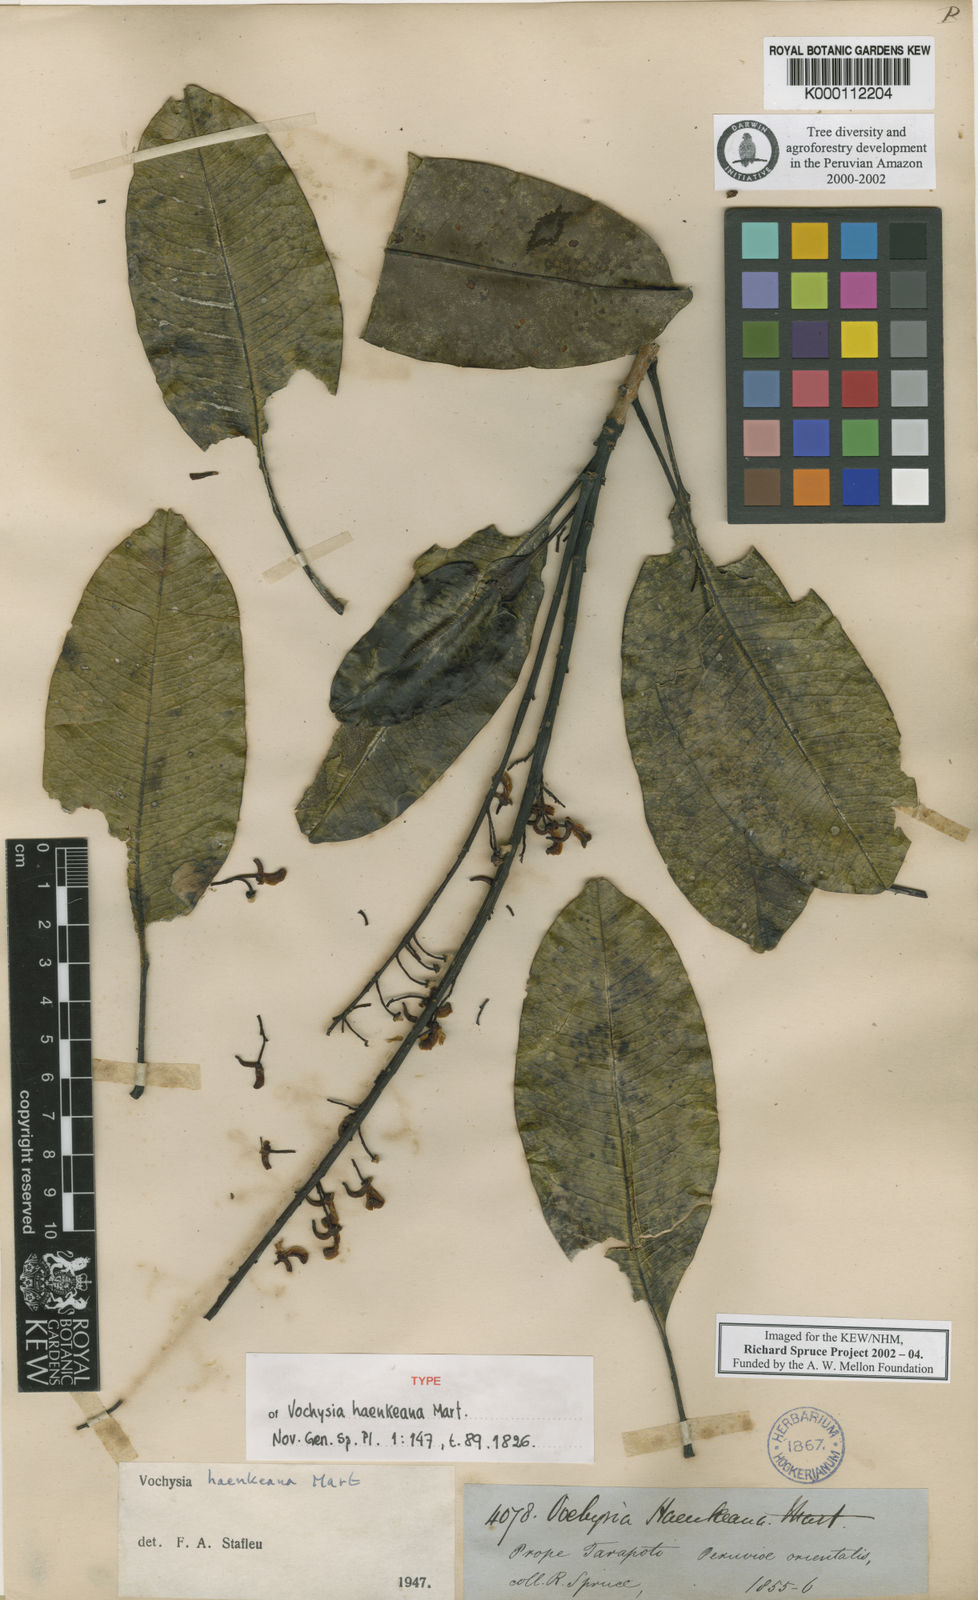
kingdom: Plantae
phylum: Tracheophyta
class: Magnoliopsida
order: Myrtales
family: Vochysiaceae
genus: Vochysia
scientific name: Vochysia haenkeana
